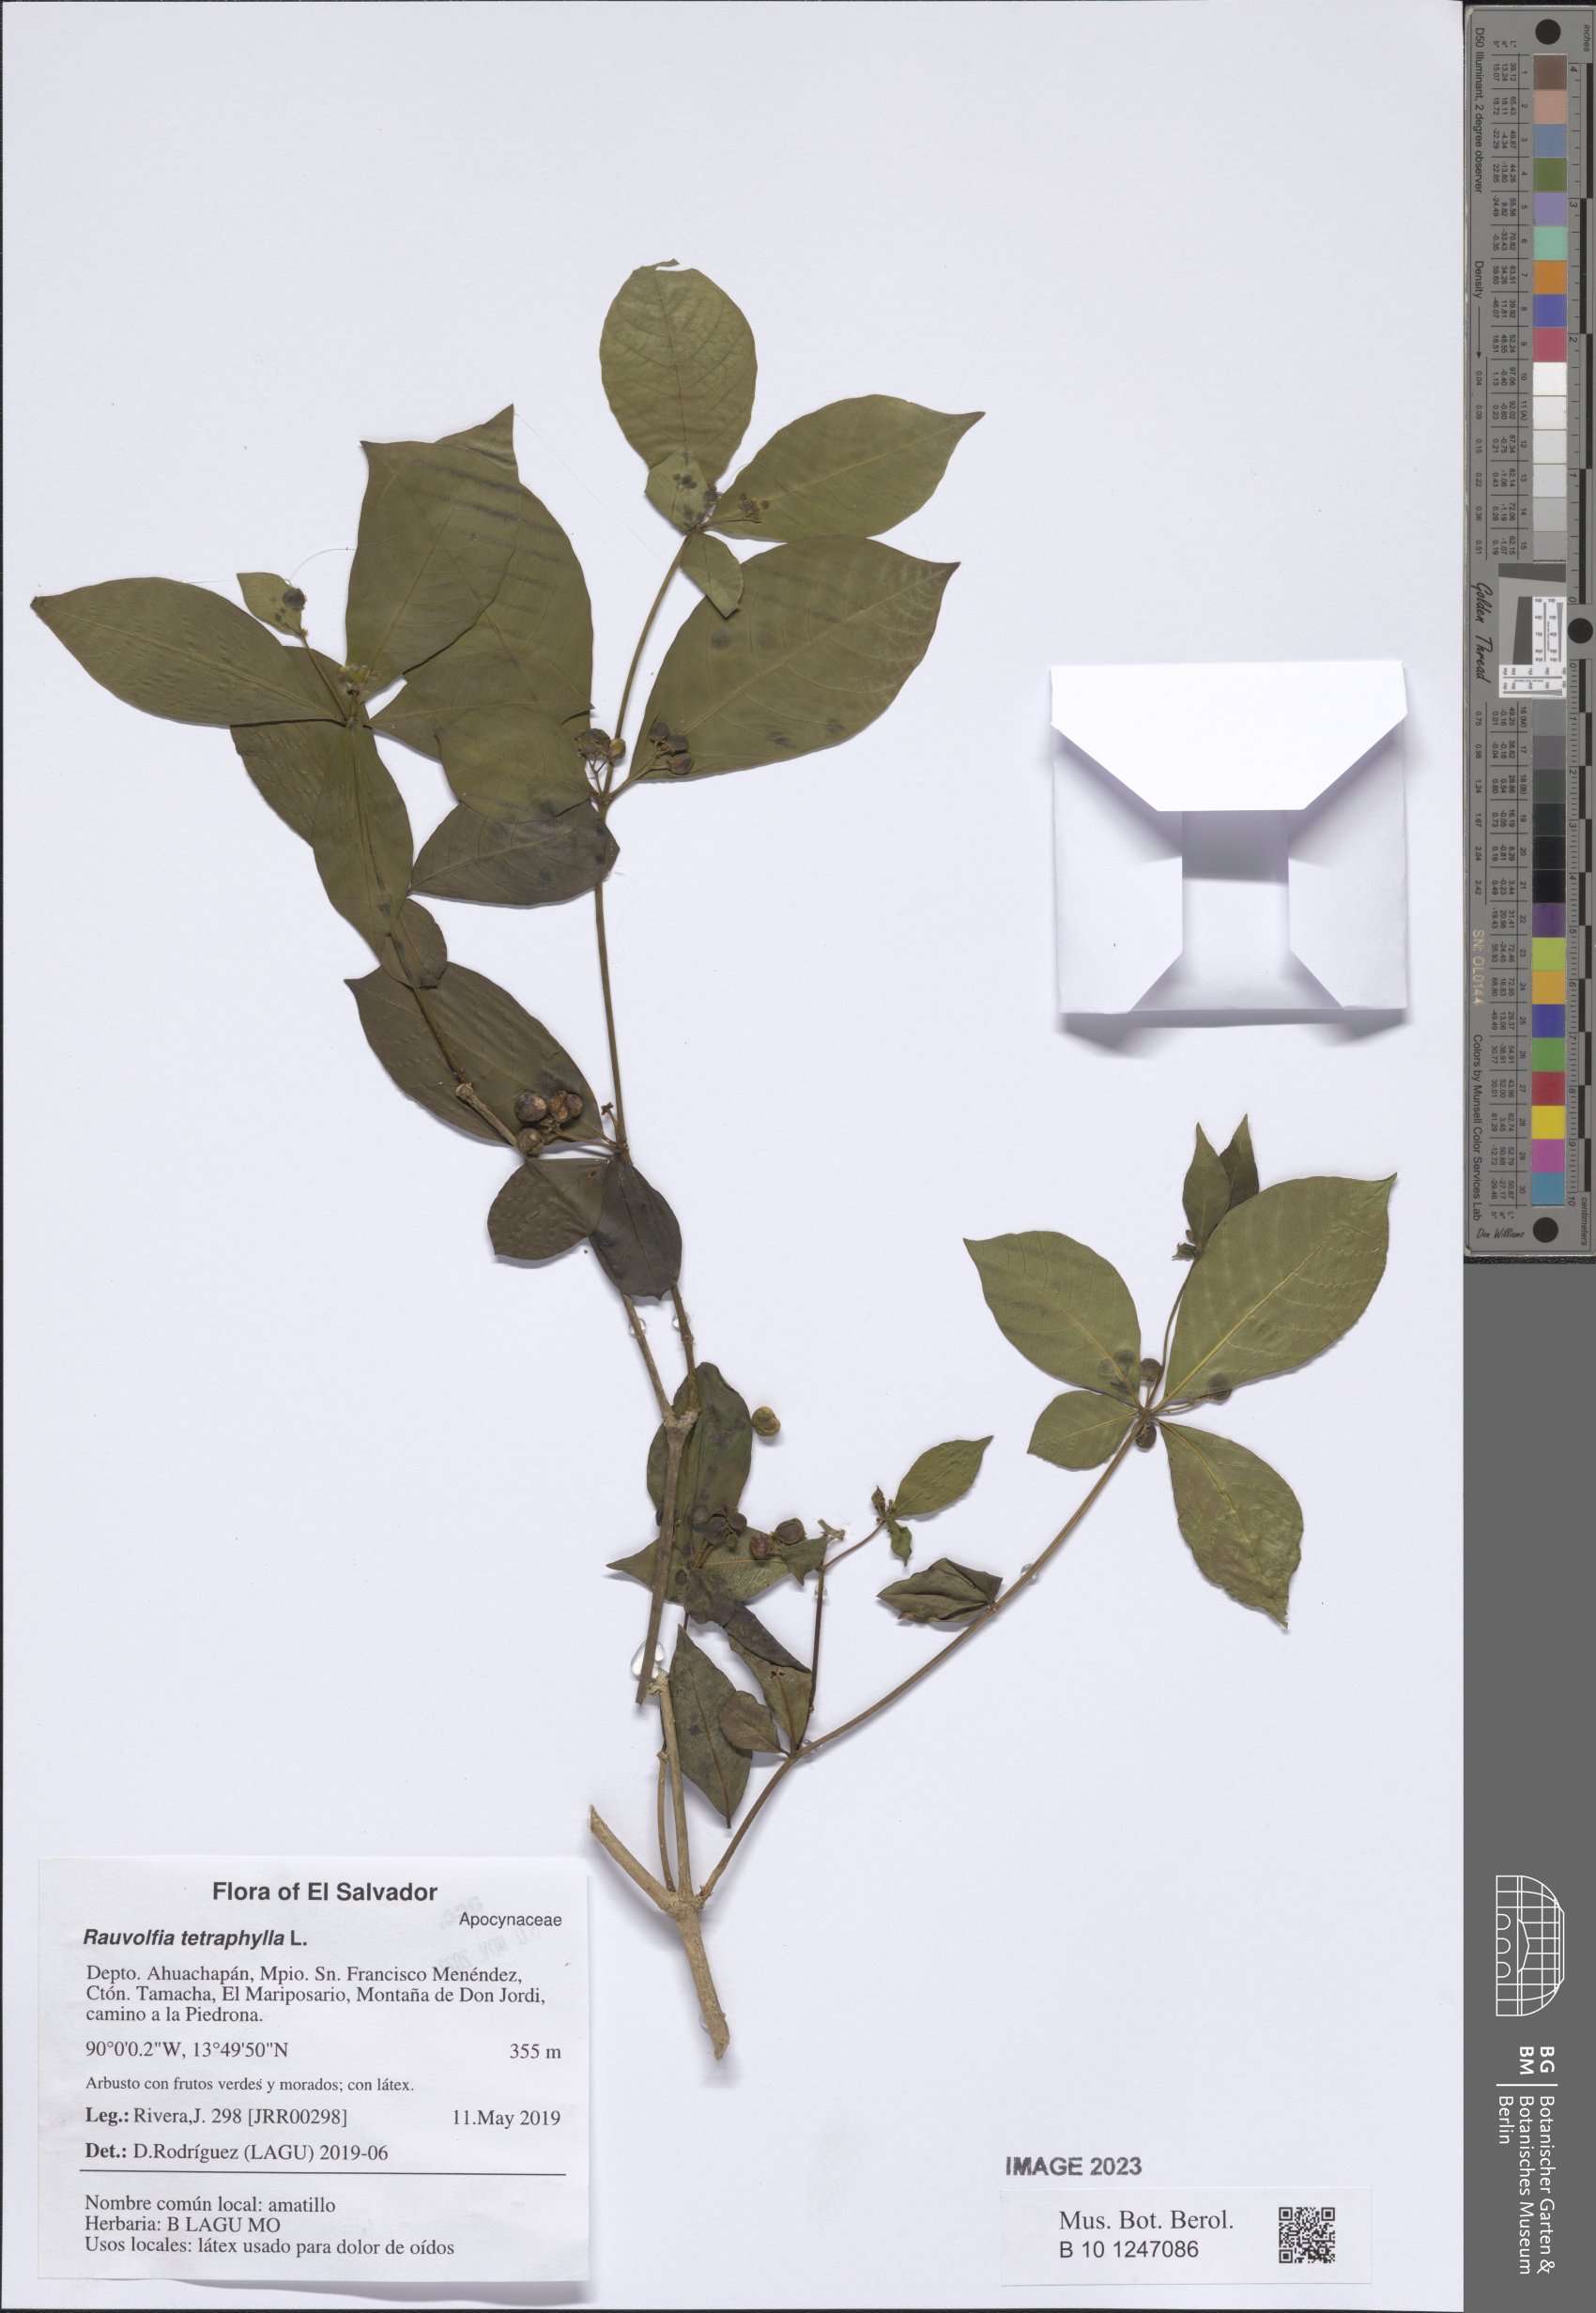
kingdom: Plantae
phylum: Tracheophyta
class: Magnoliopsida
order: Gentianales
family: Apocynaceae
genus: Rauvolfia
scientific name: Rauvolfia tetraphylla
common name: Four-leaf devil-pepper
